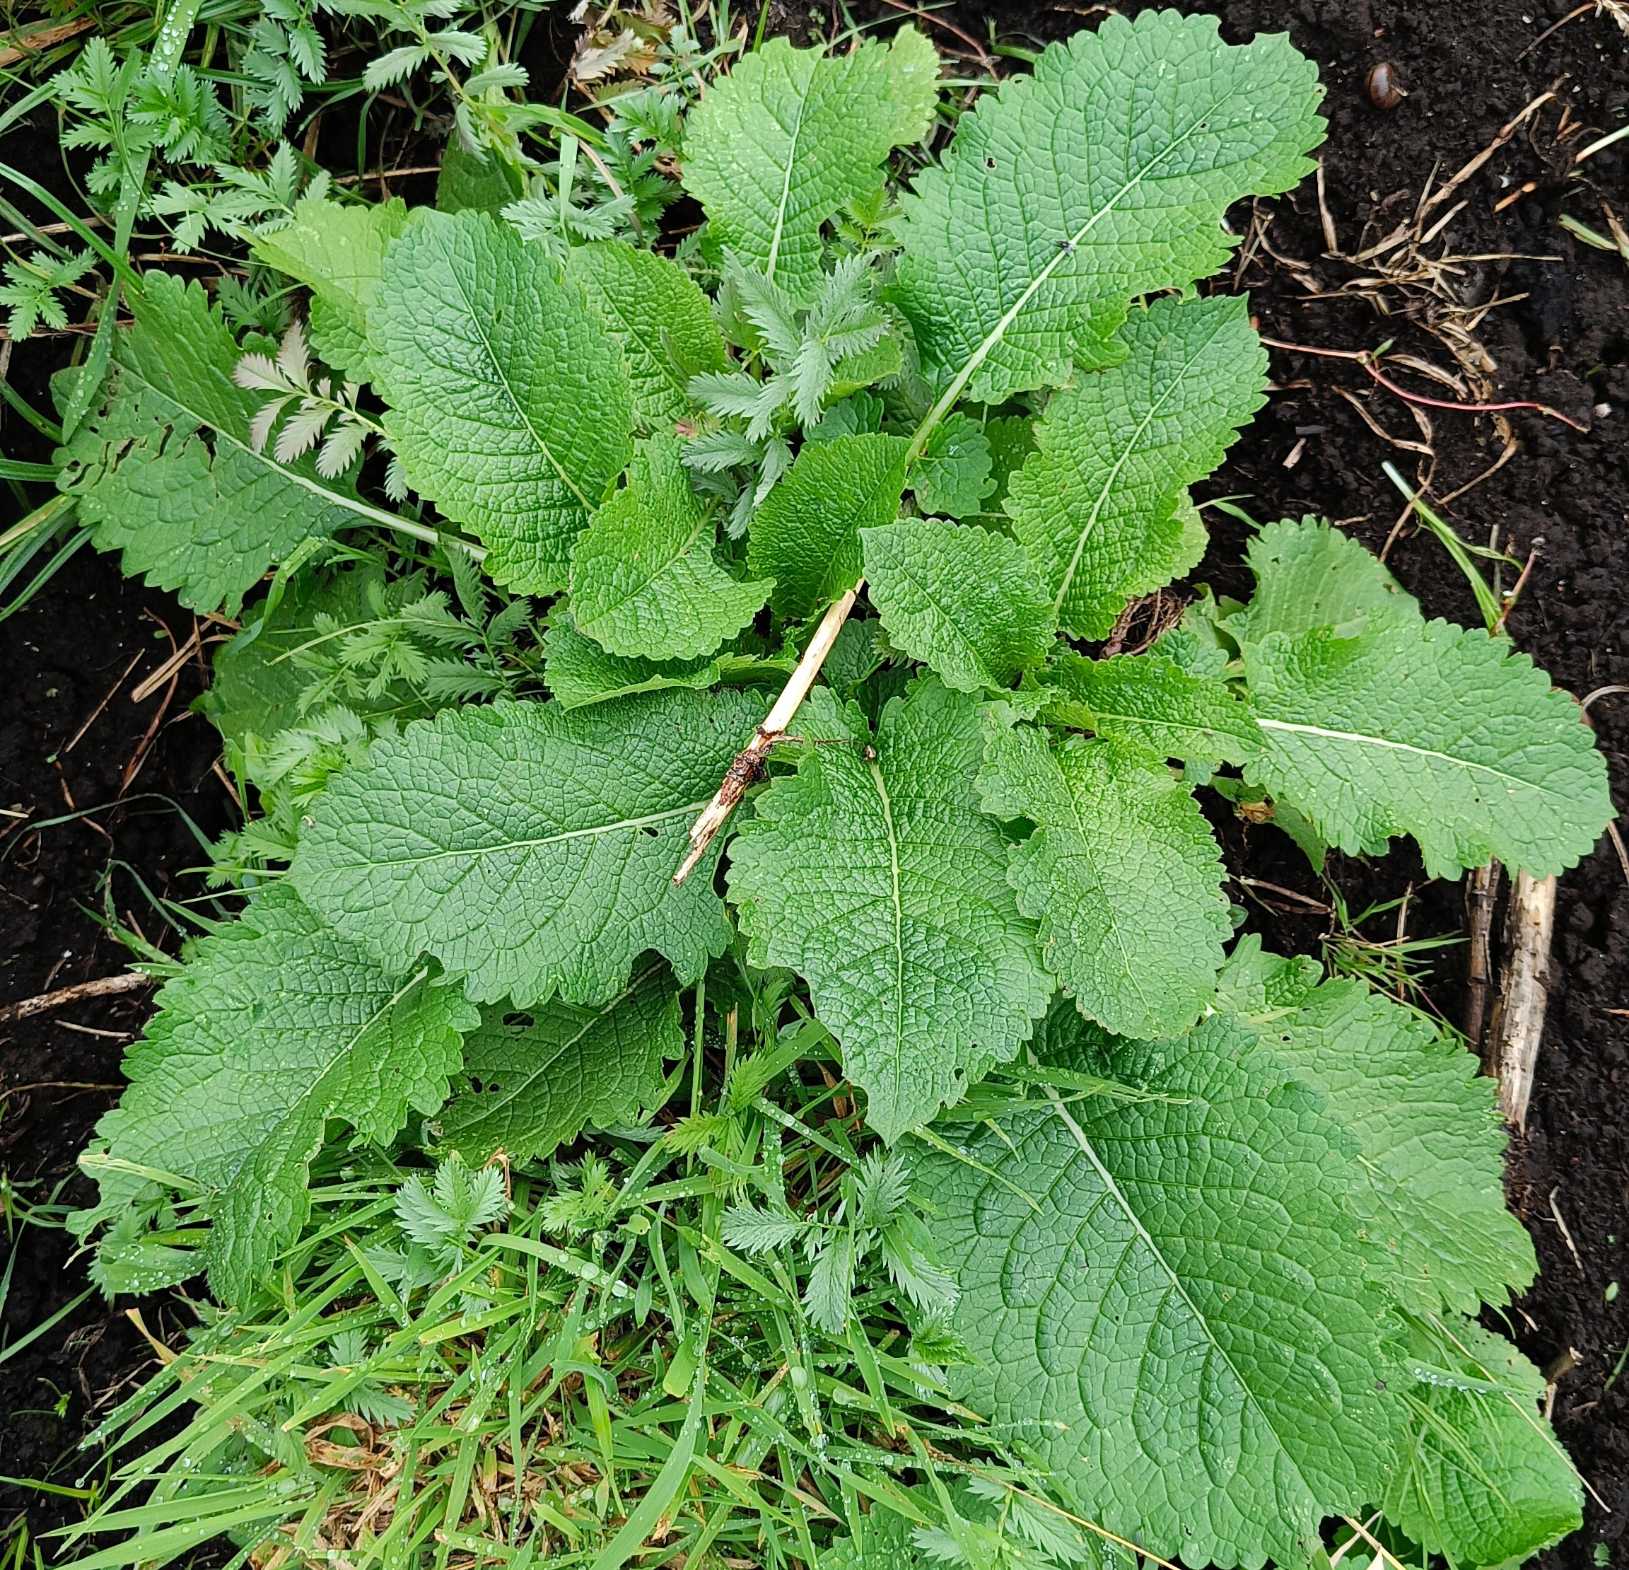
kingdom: Plantae
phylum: Tracheophyta
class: Magnoliopsida
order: Dipsacales
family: Caprifoliaceae
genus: Dipsacus
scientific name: Dipsacus strigosus
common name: Pindsvin-kartebolle
